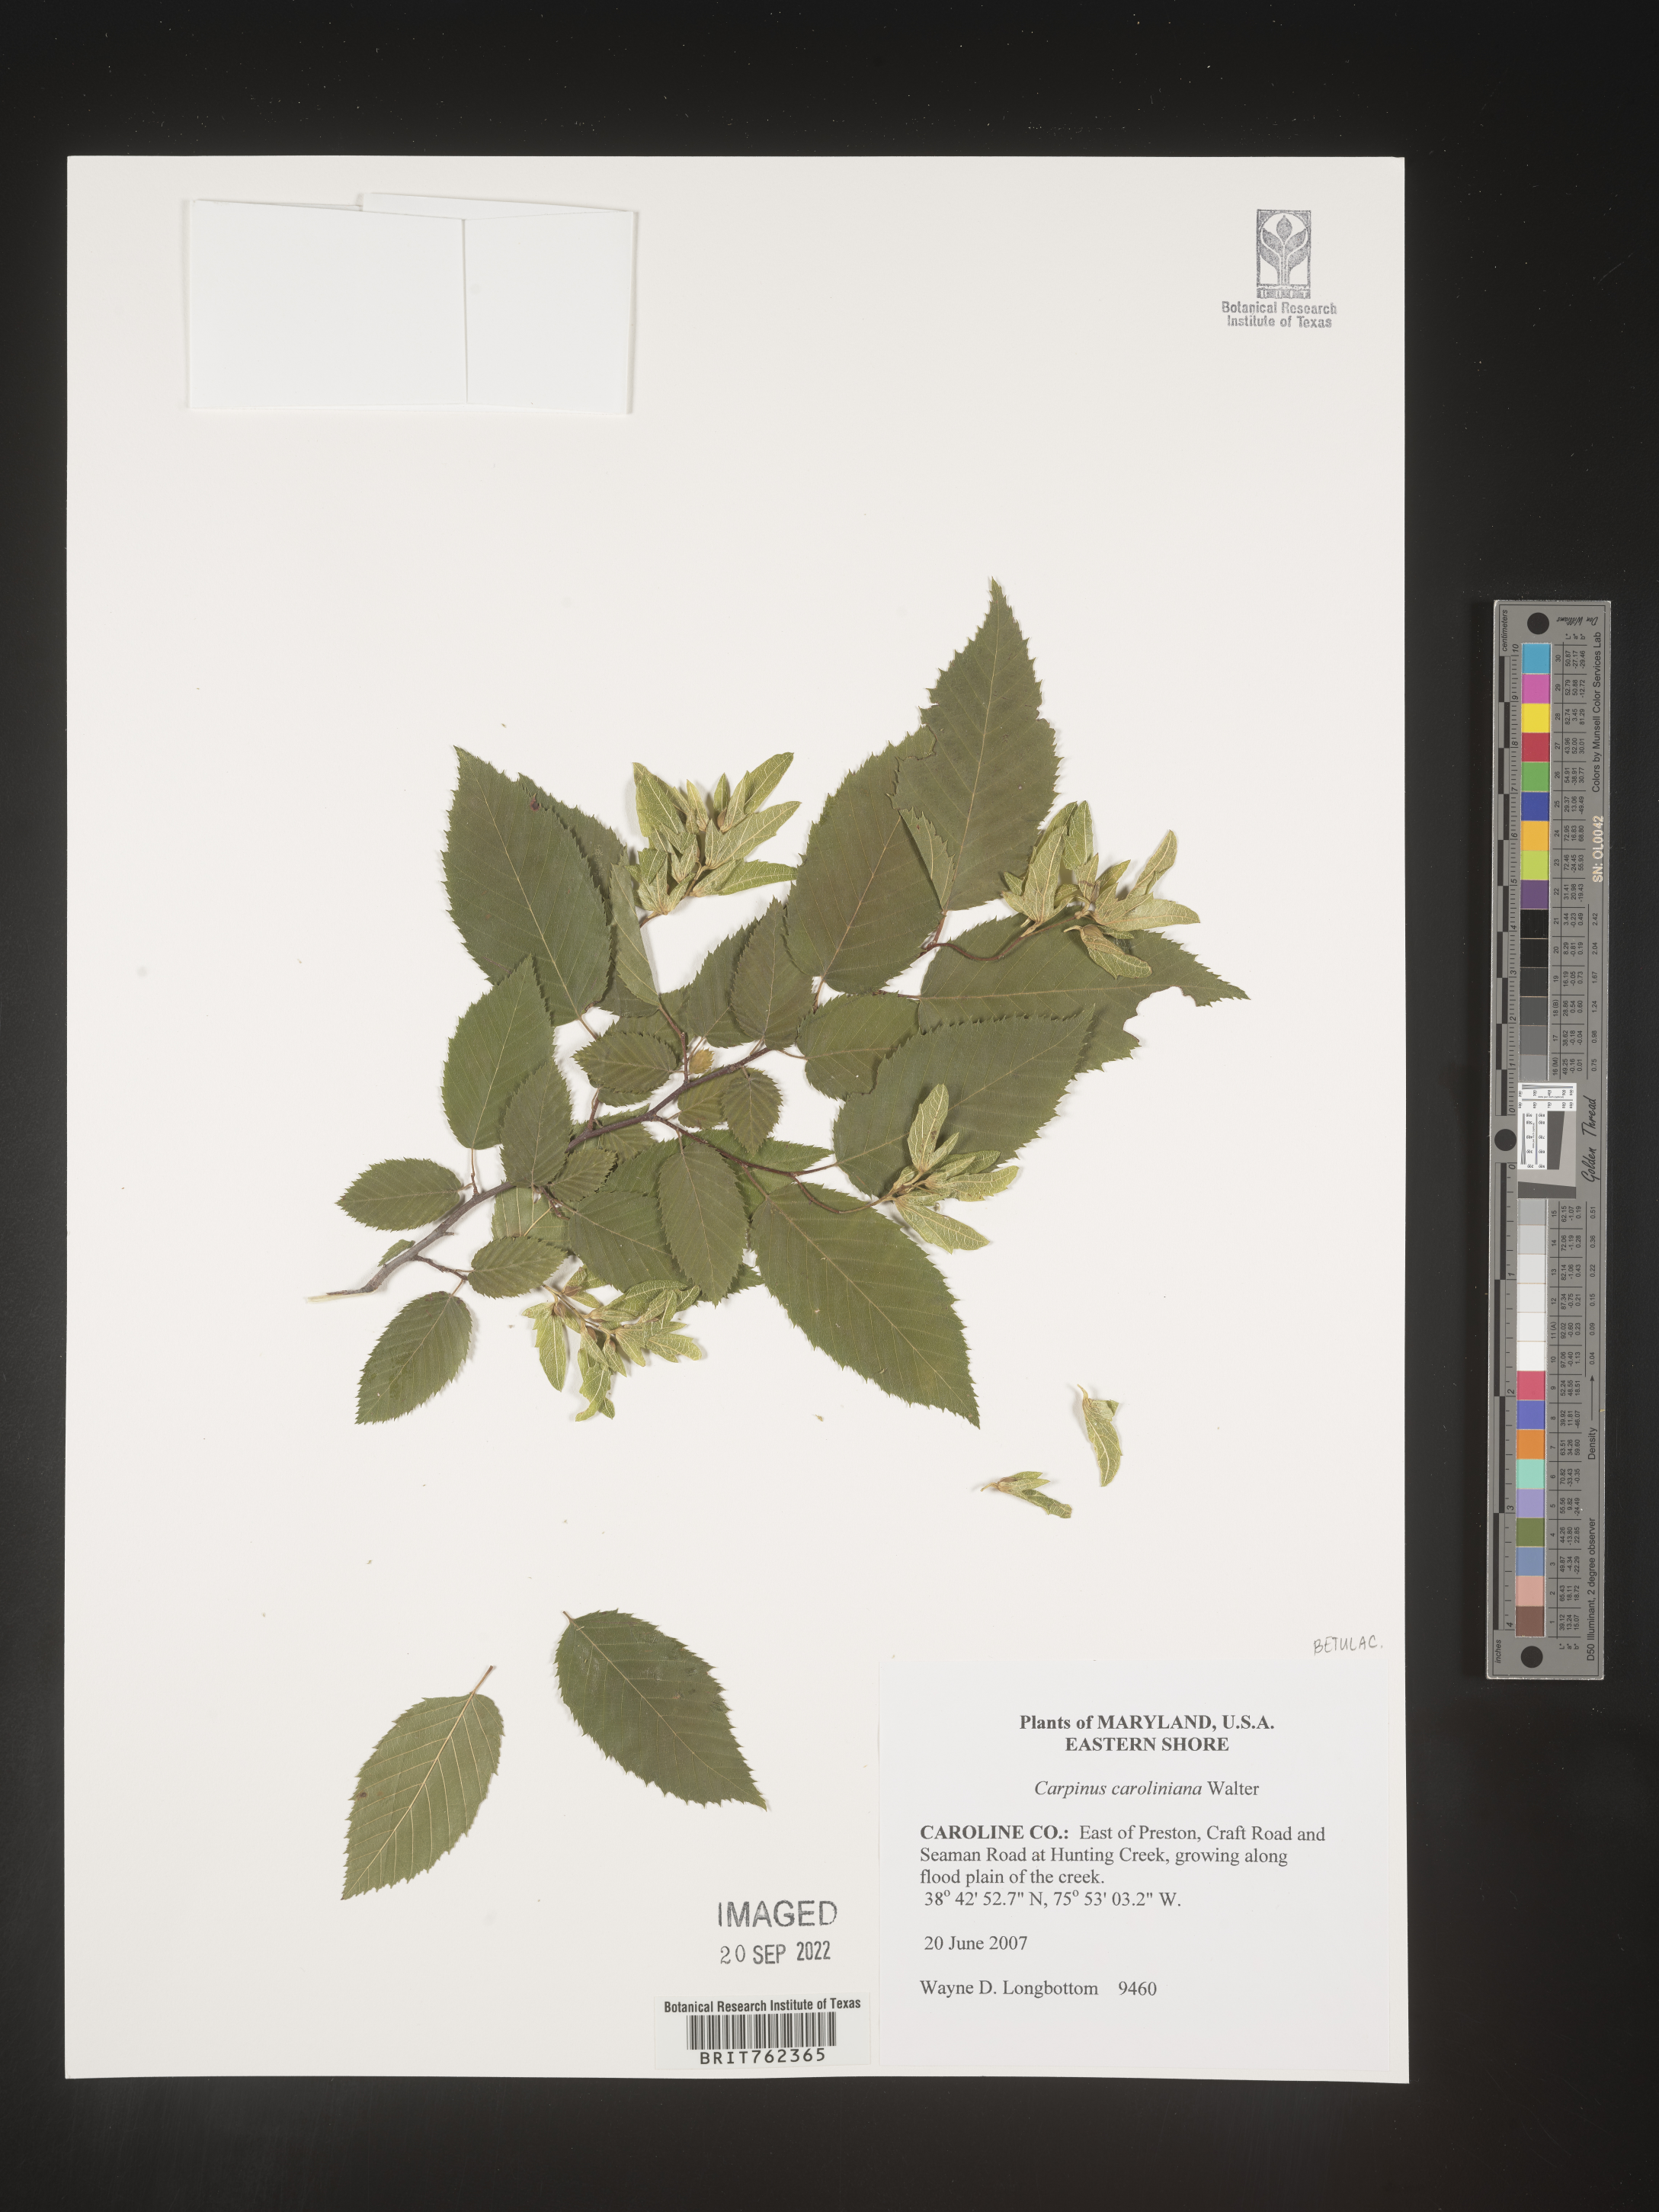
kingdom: Plantae
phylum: Tracheophyta
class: Magnoliopsida
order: Fagales
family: Betulaceae
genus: Carpinus
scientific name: Carpinus caroliniana
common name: American hornbeam
